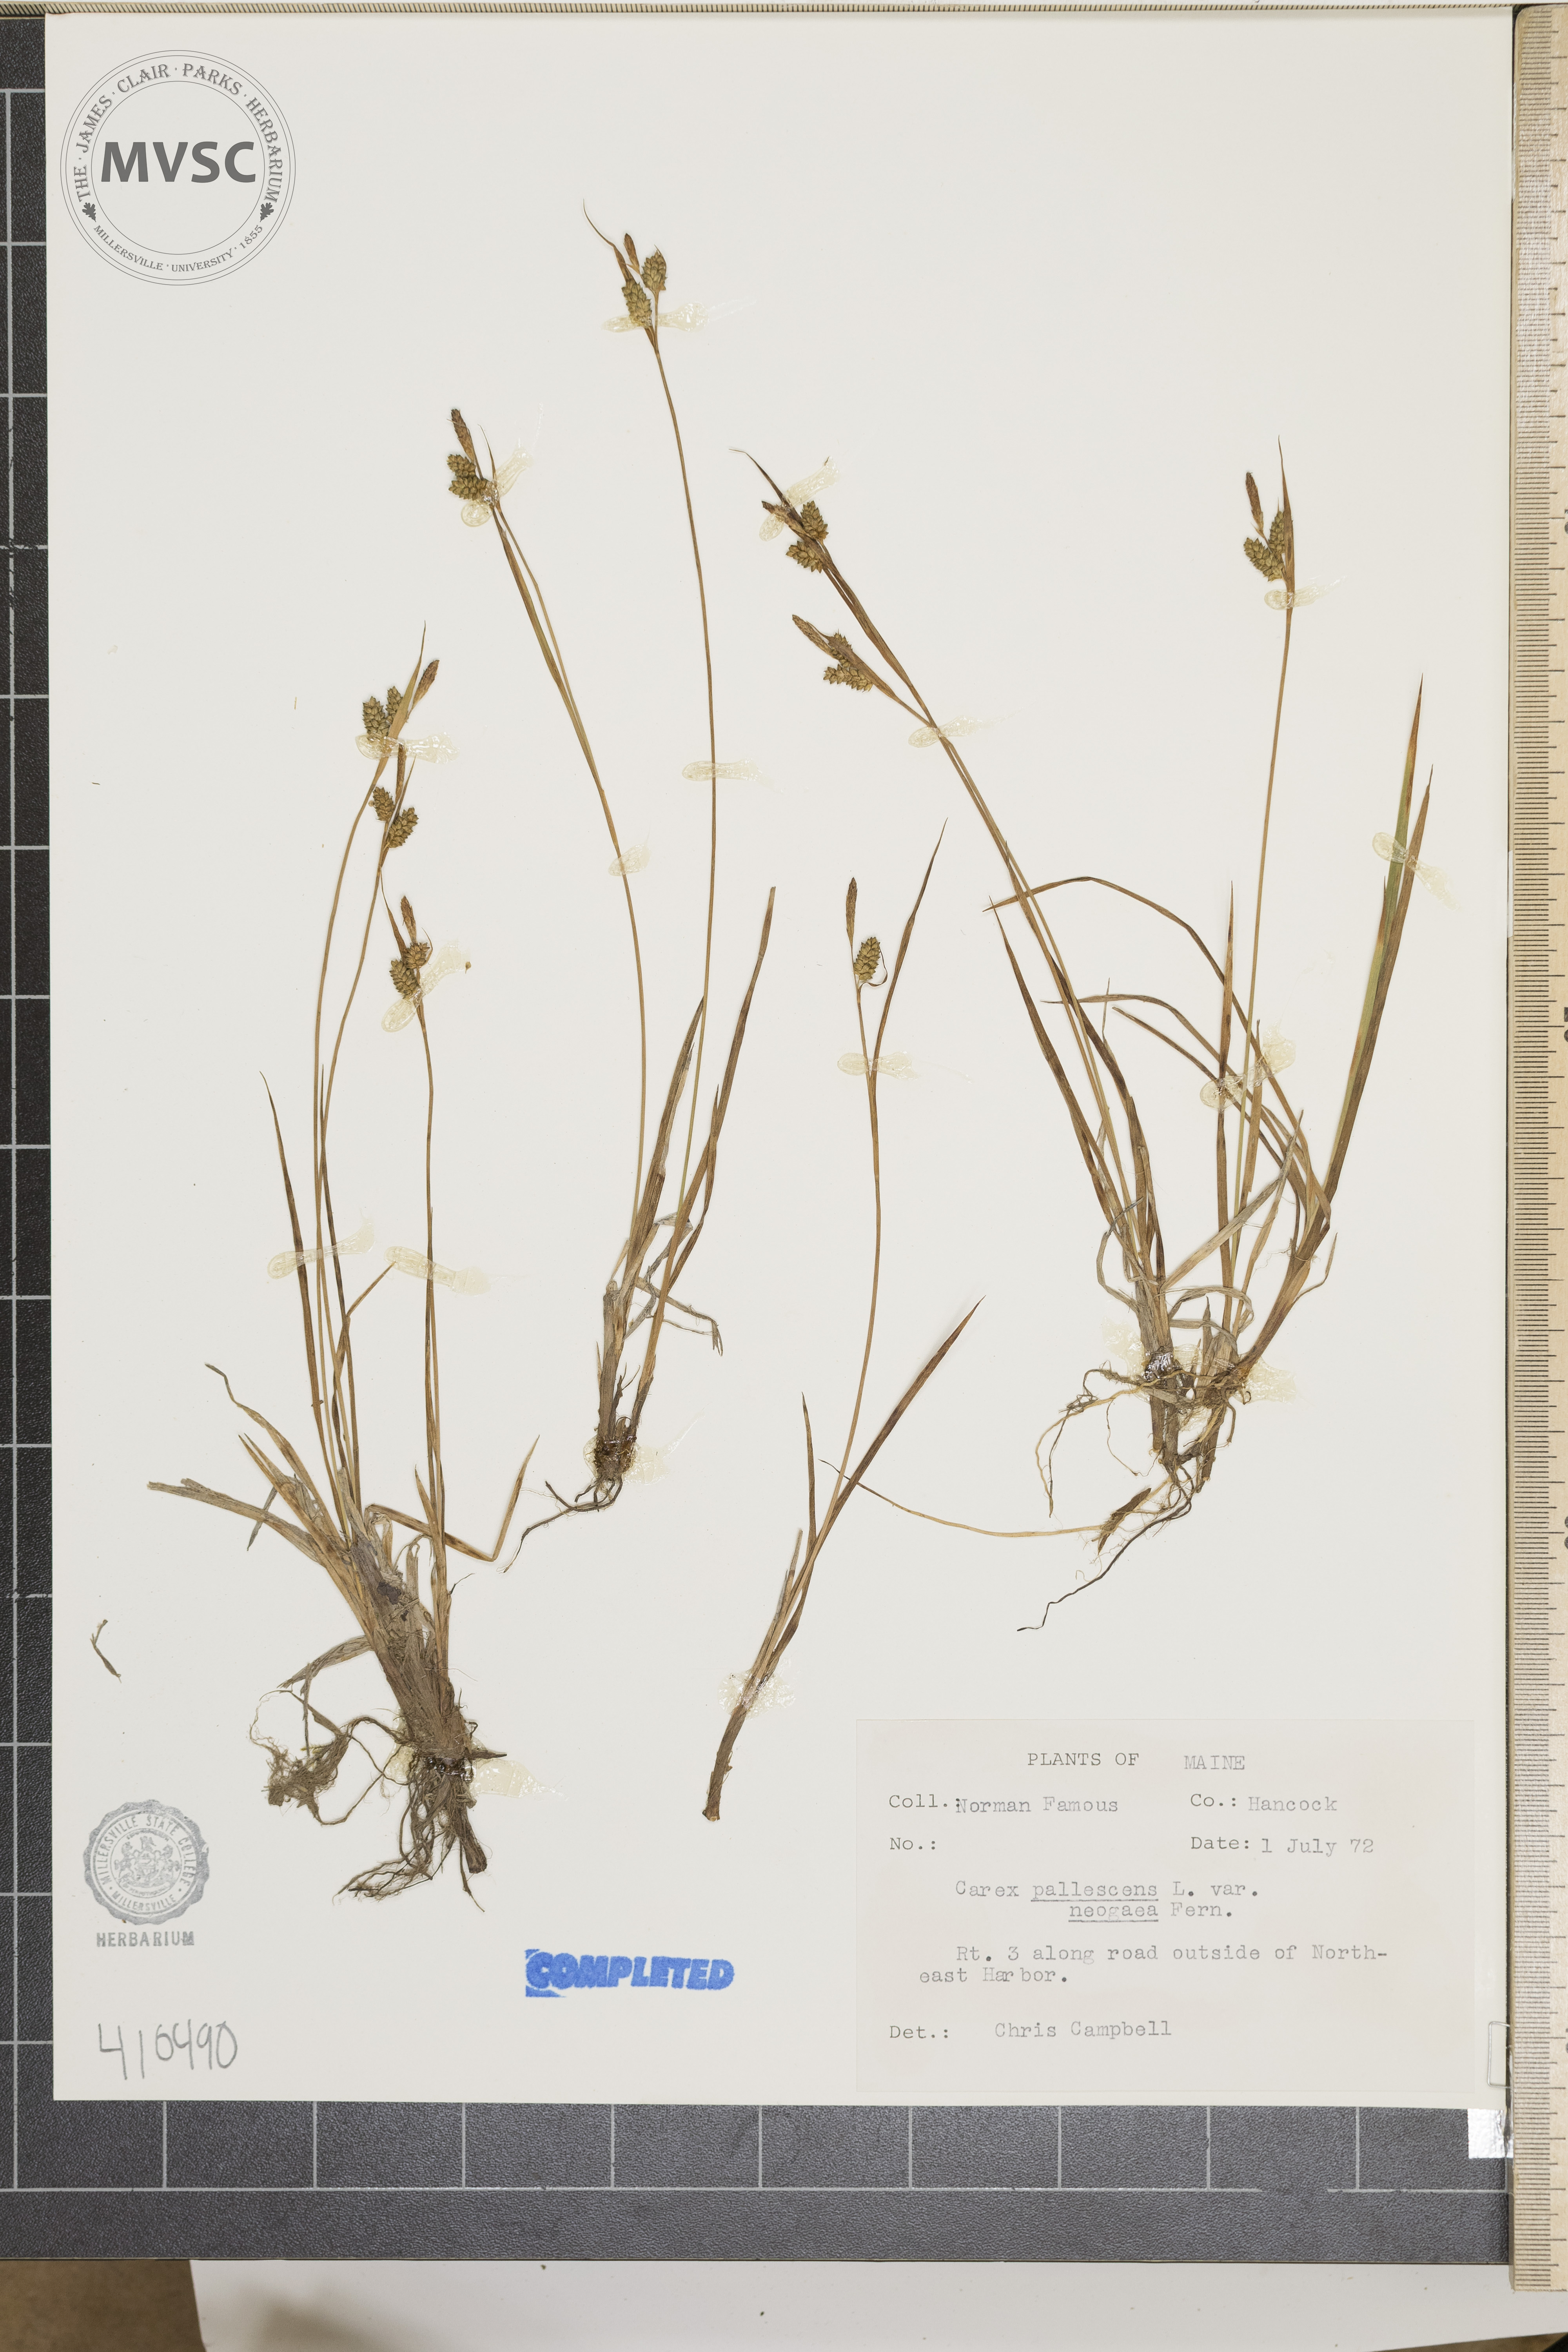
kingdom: Plantae
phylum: Tracheophyta
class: Liliopsida
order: Poales
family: Cyperaceae
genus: Carex
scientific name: Carex pallescens
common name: Pale sedge
